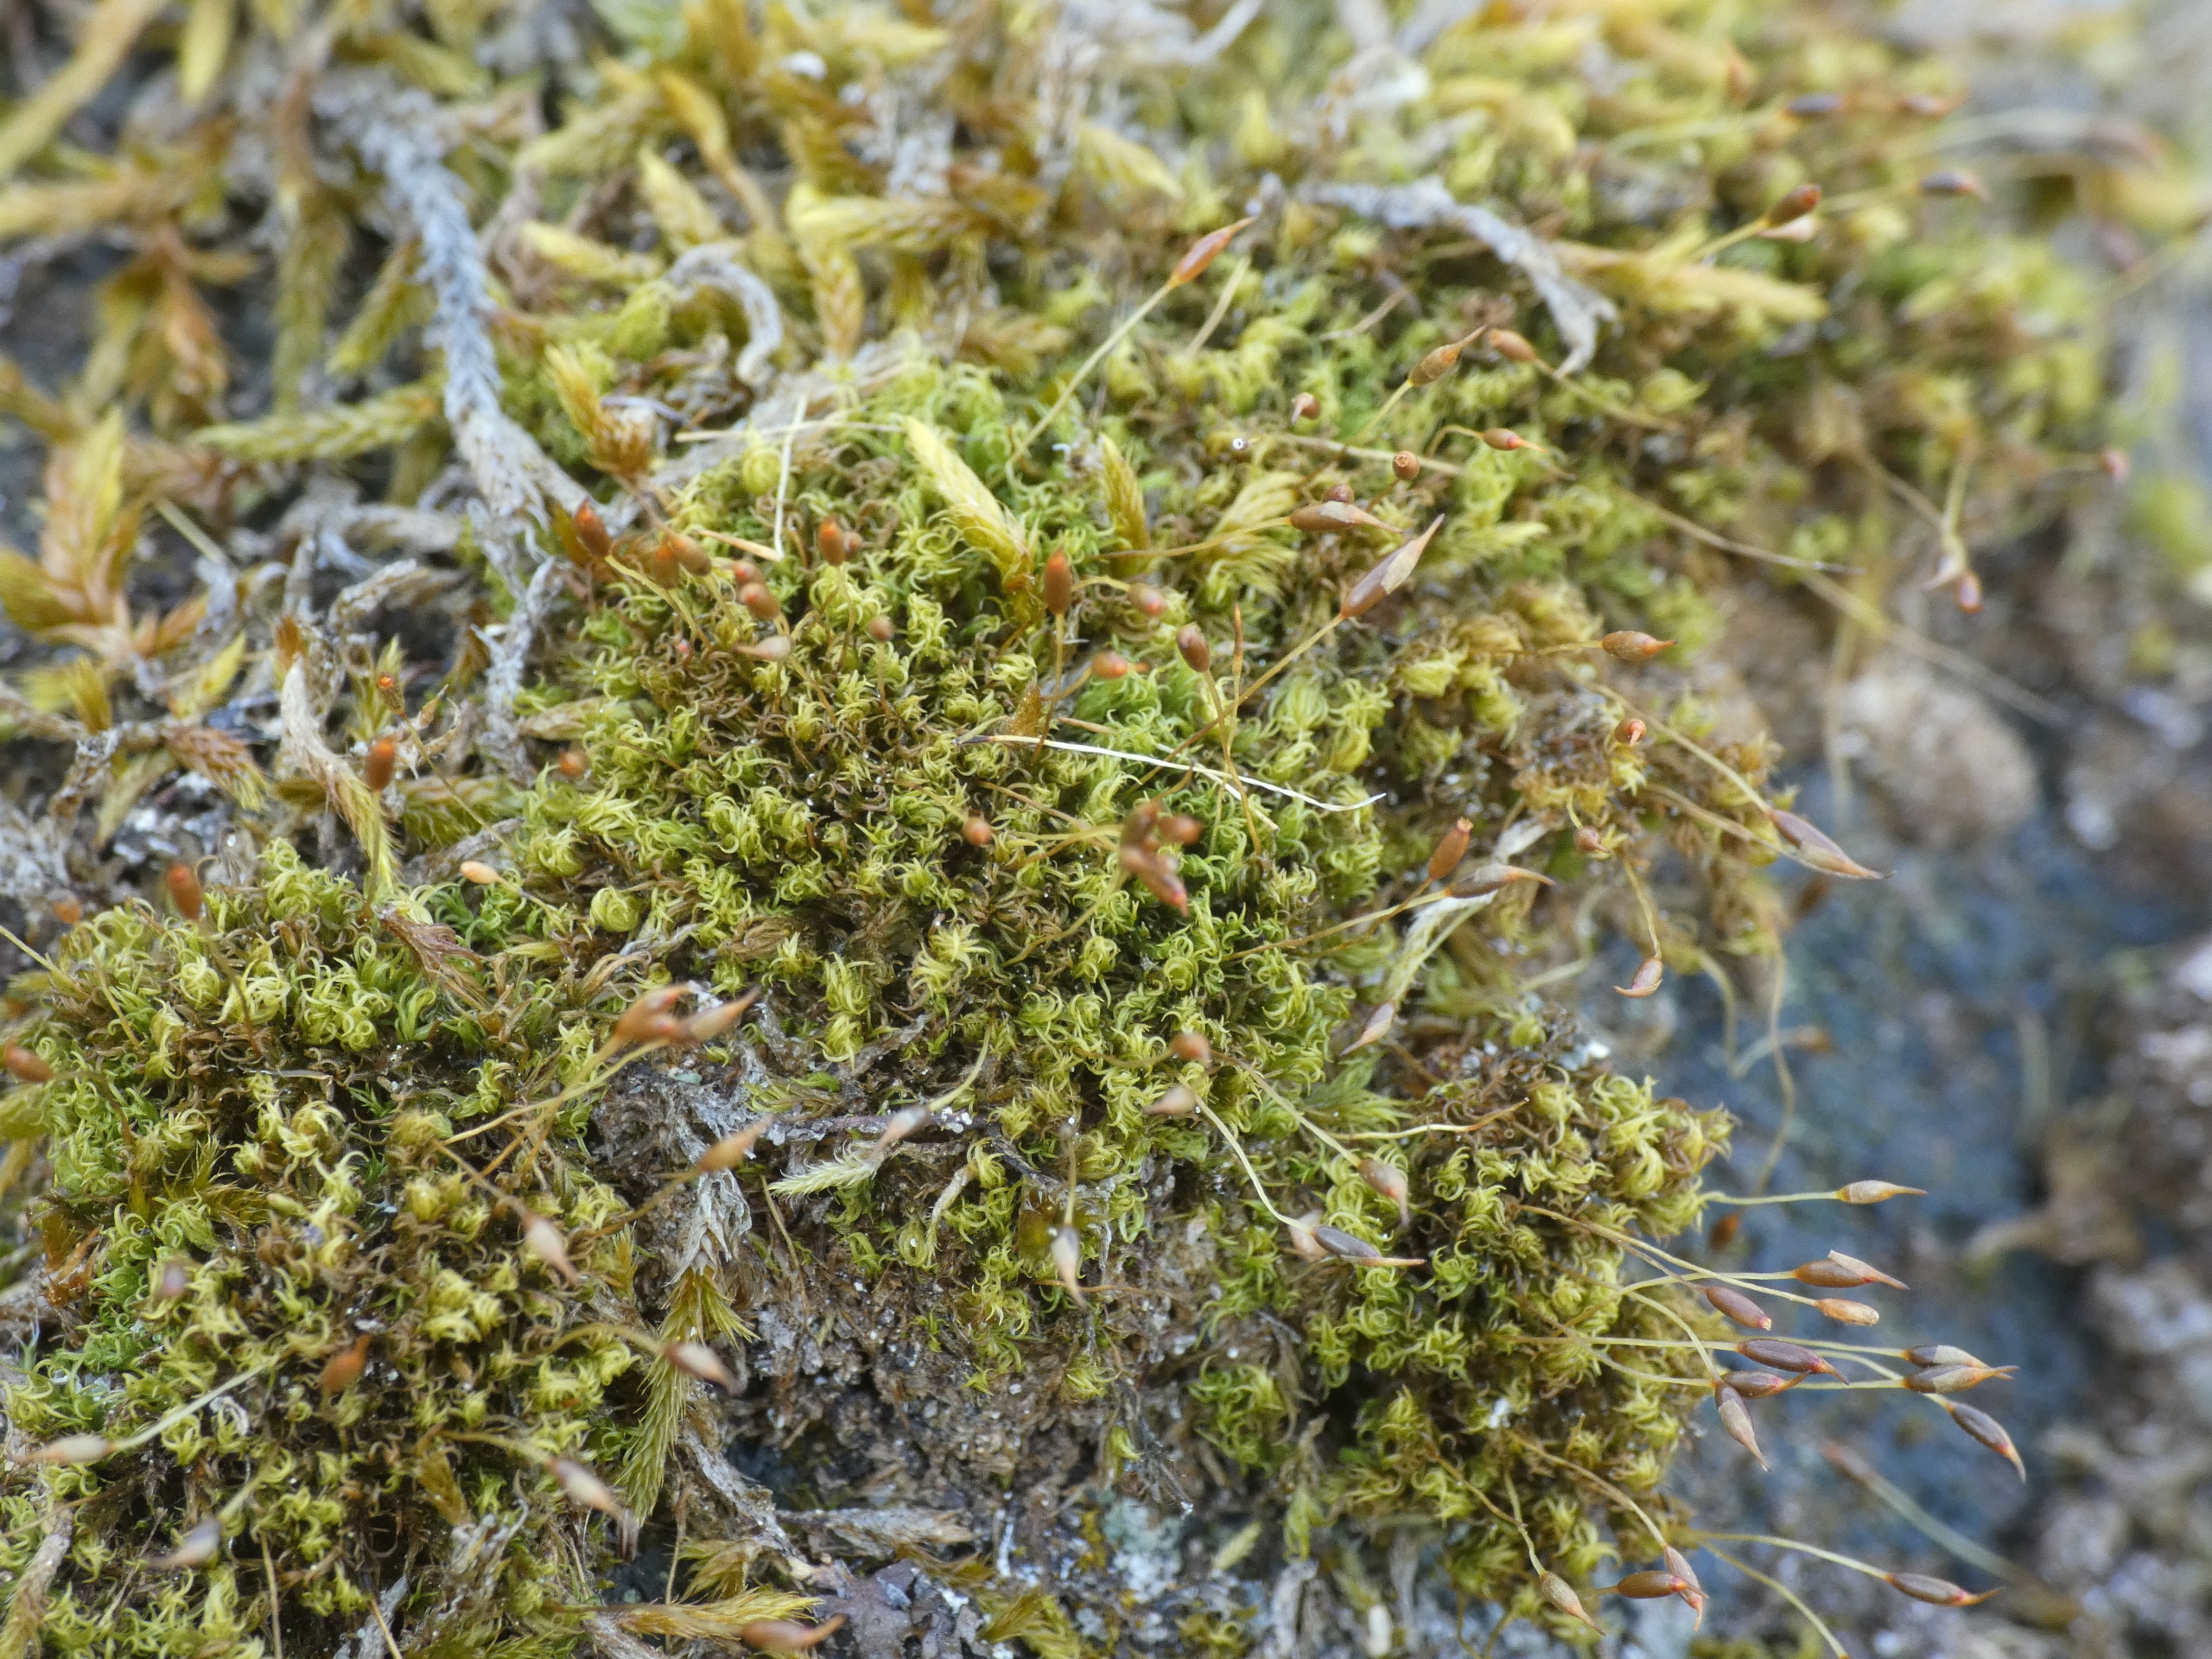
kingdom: Plantae
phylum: Bryophyta
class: Bryopsida
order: Dicranales
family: Rhabdoweisiaceae
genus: Dicranoweisia
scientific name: Dicranoweisia cirrata
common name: Almindelig krøltuemos
